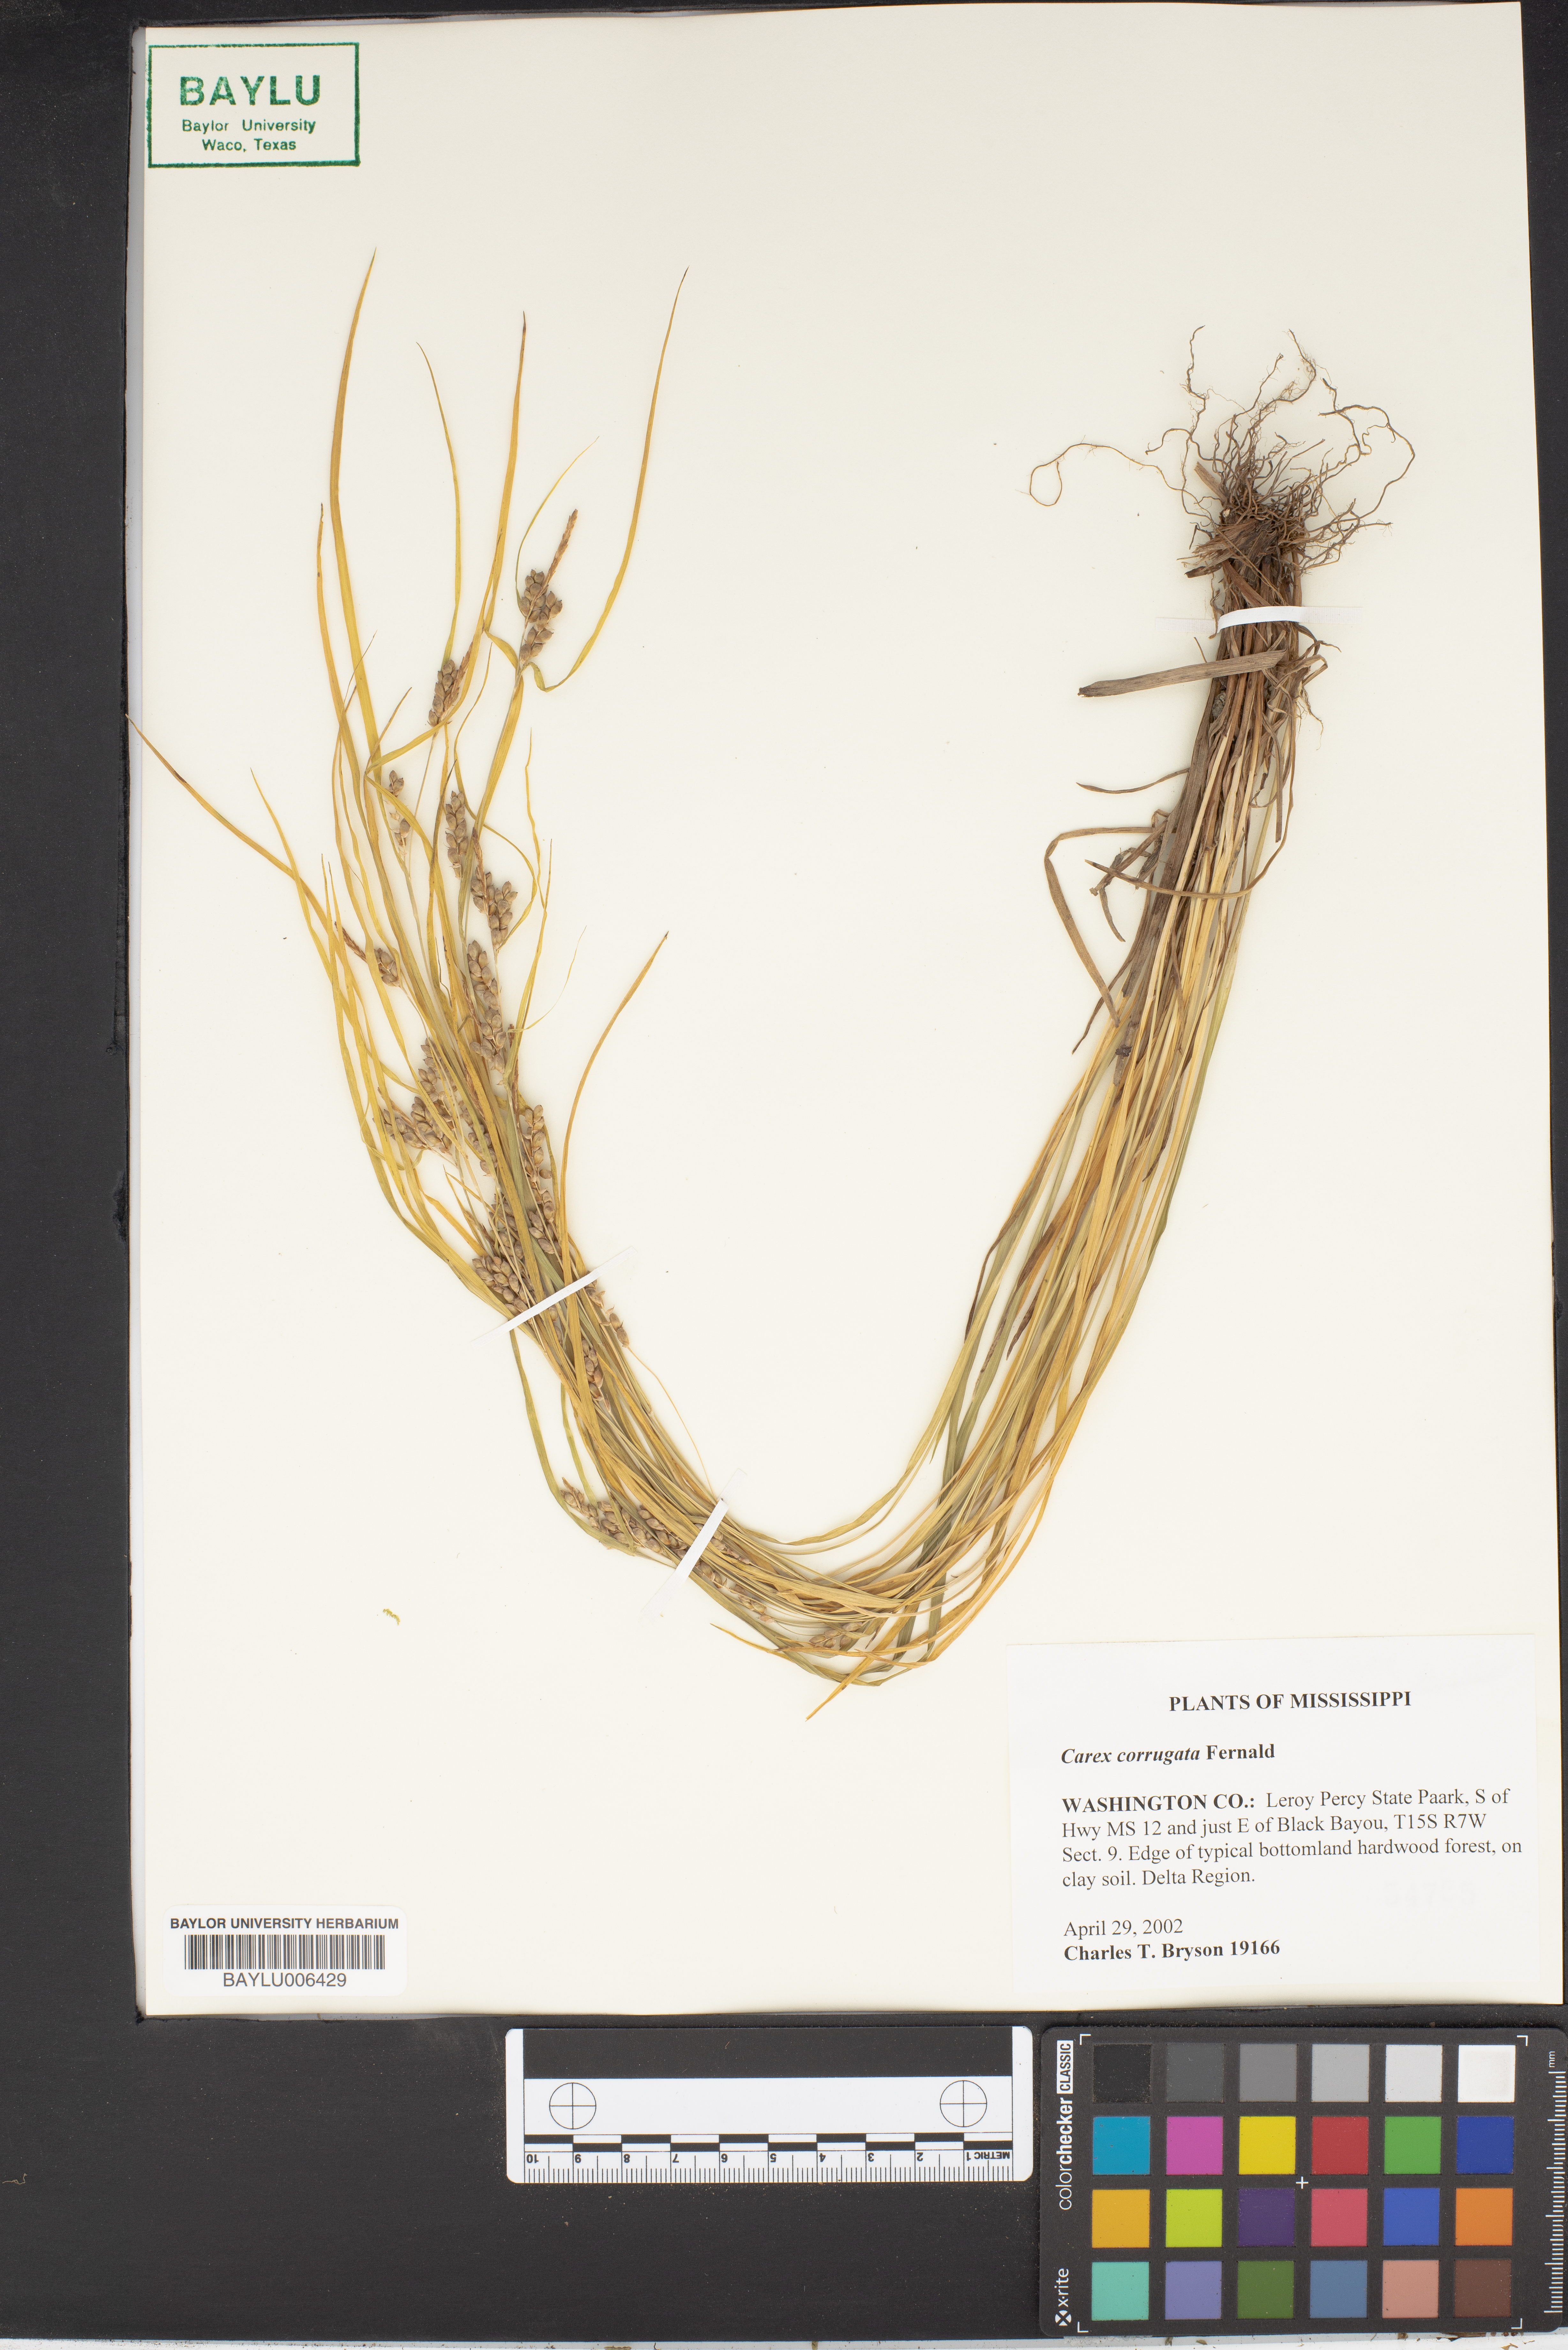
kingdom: Plantae
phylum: Tracheophyta
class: Liliopsida
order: Poales
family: Cyperaceae
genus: Carex
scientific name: Carex corrugata
